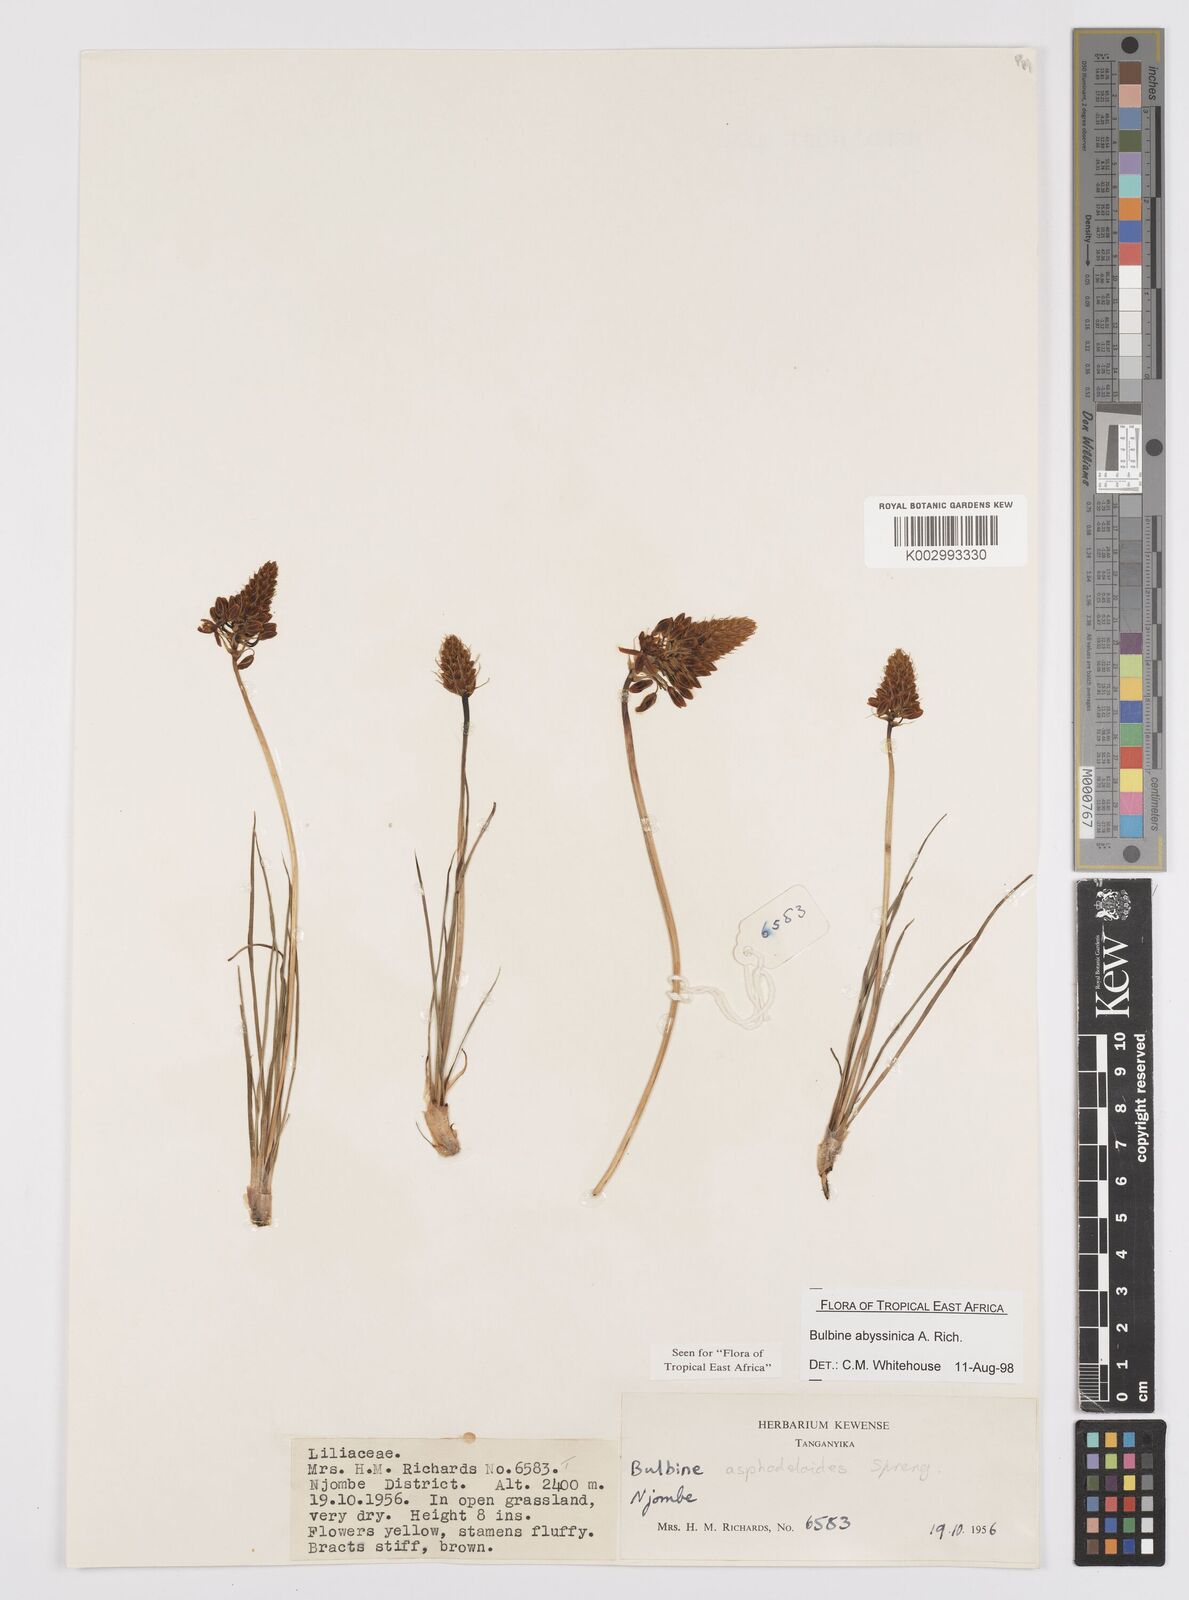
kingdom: Plantae
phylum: Tracheophyta
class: Liliopsida
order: Asparagales
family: Asphodelaceae
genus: Bulbine
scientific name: Bulbine asphodeloides
